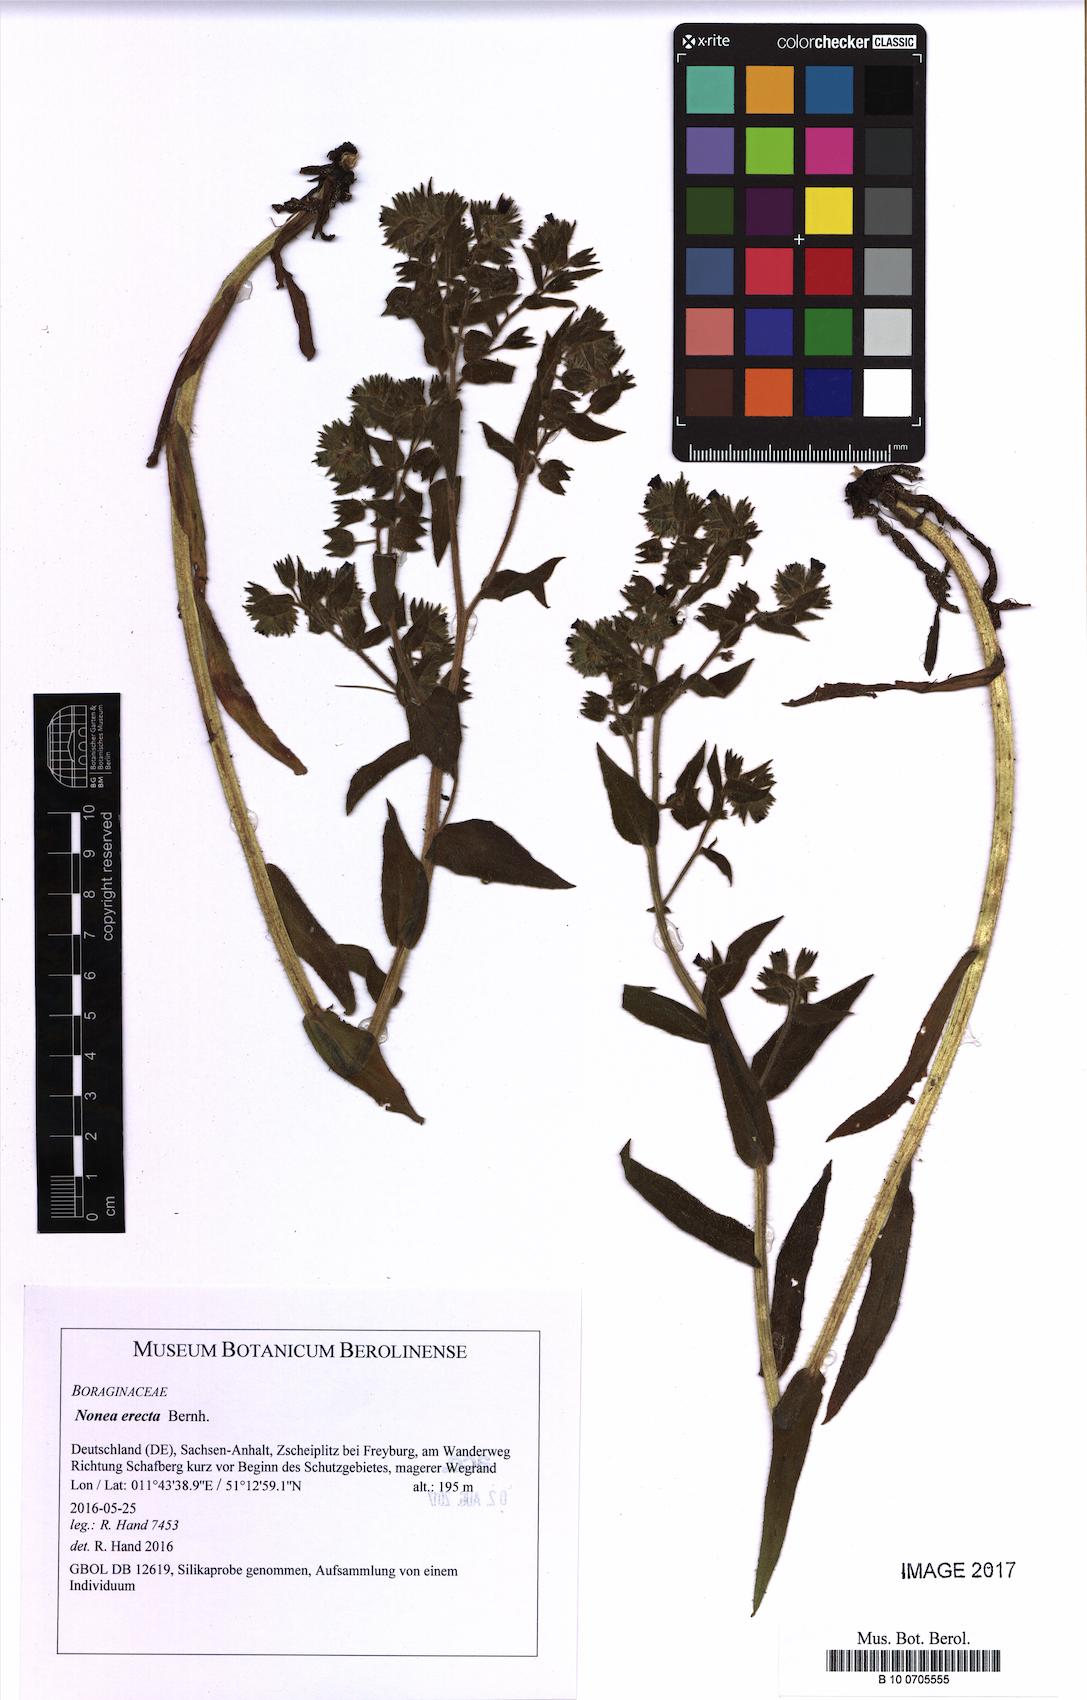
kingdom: Plantae
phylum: Tracheophyta
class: Magnoliopsida
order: Boraginales
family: Boraginaceae
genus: Nonea
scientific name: Nonea pulla
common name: Brown nonea
